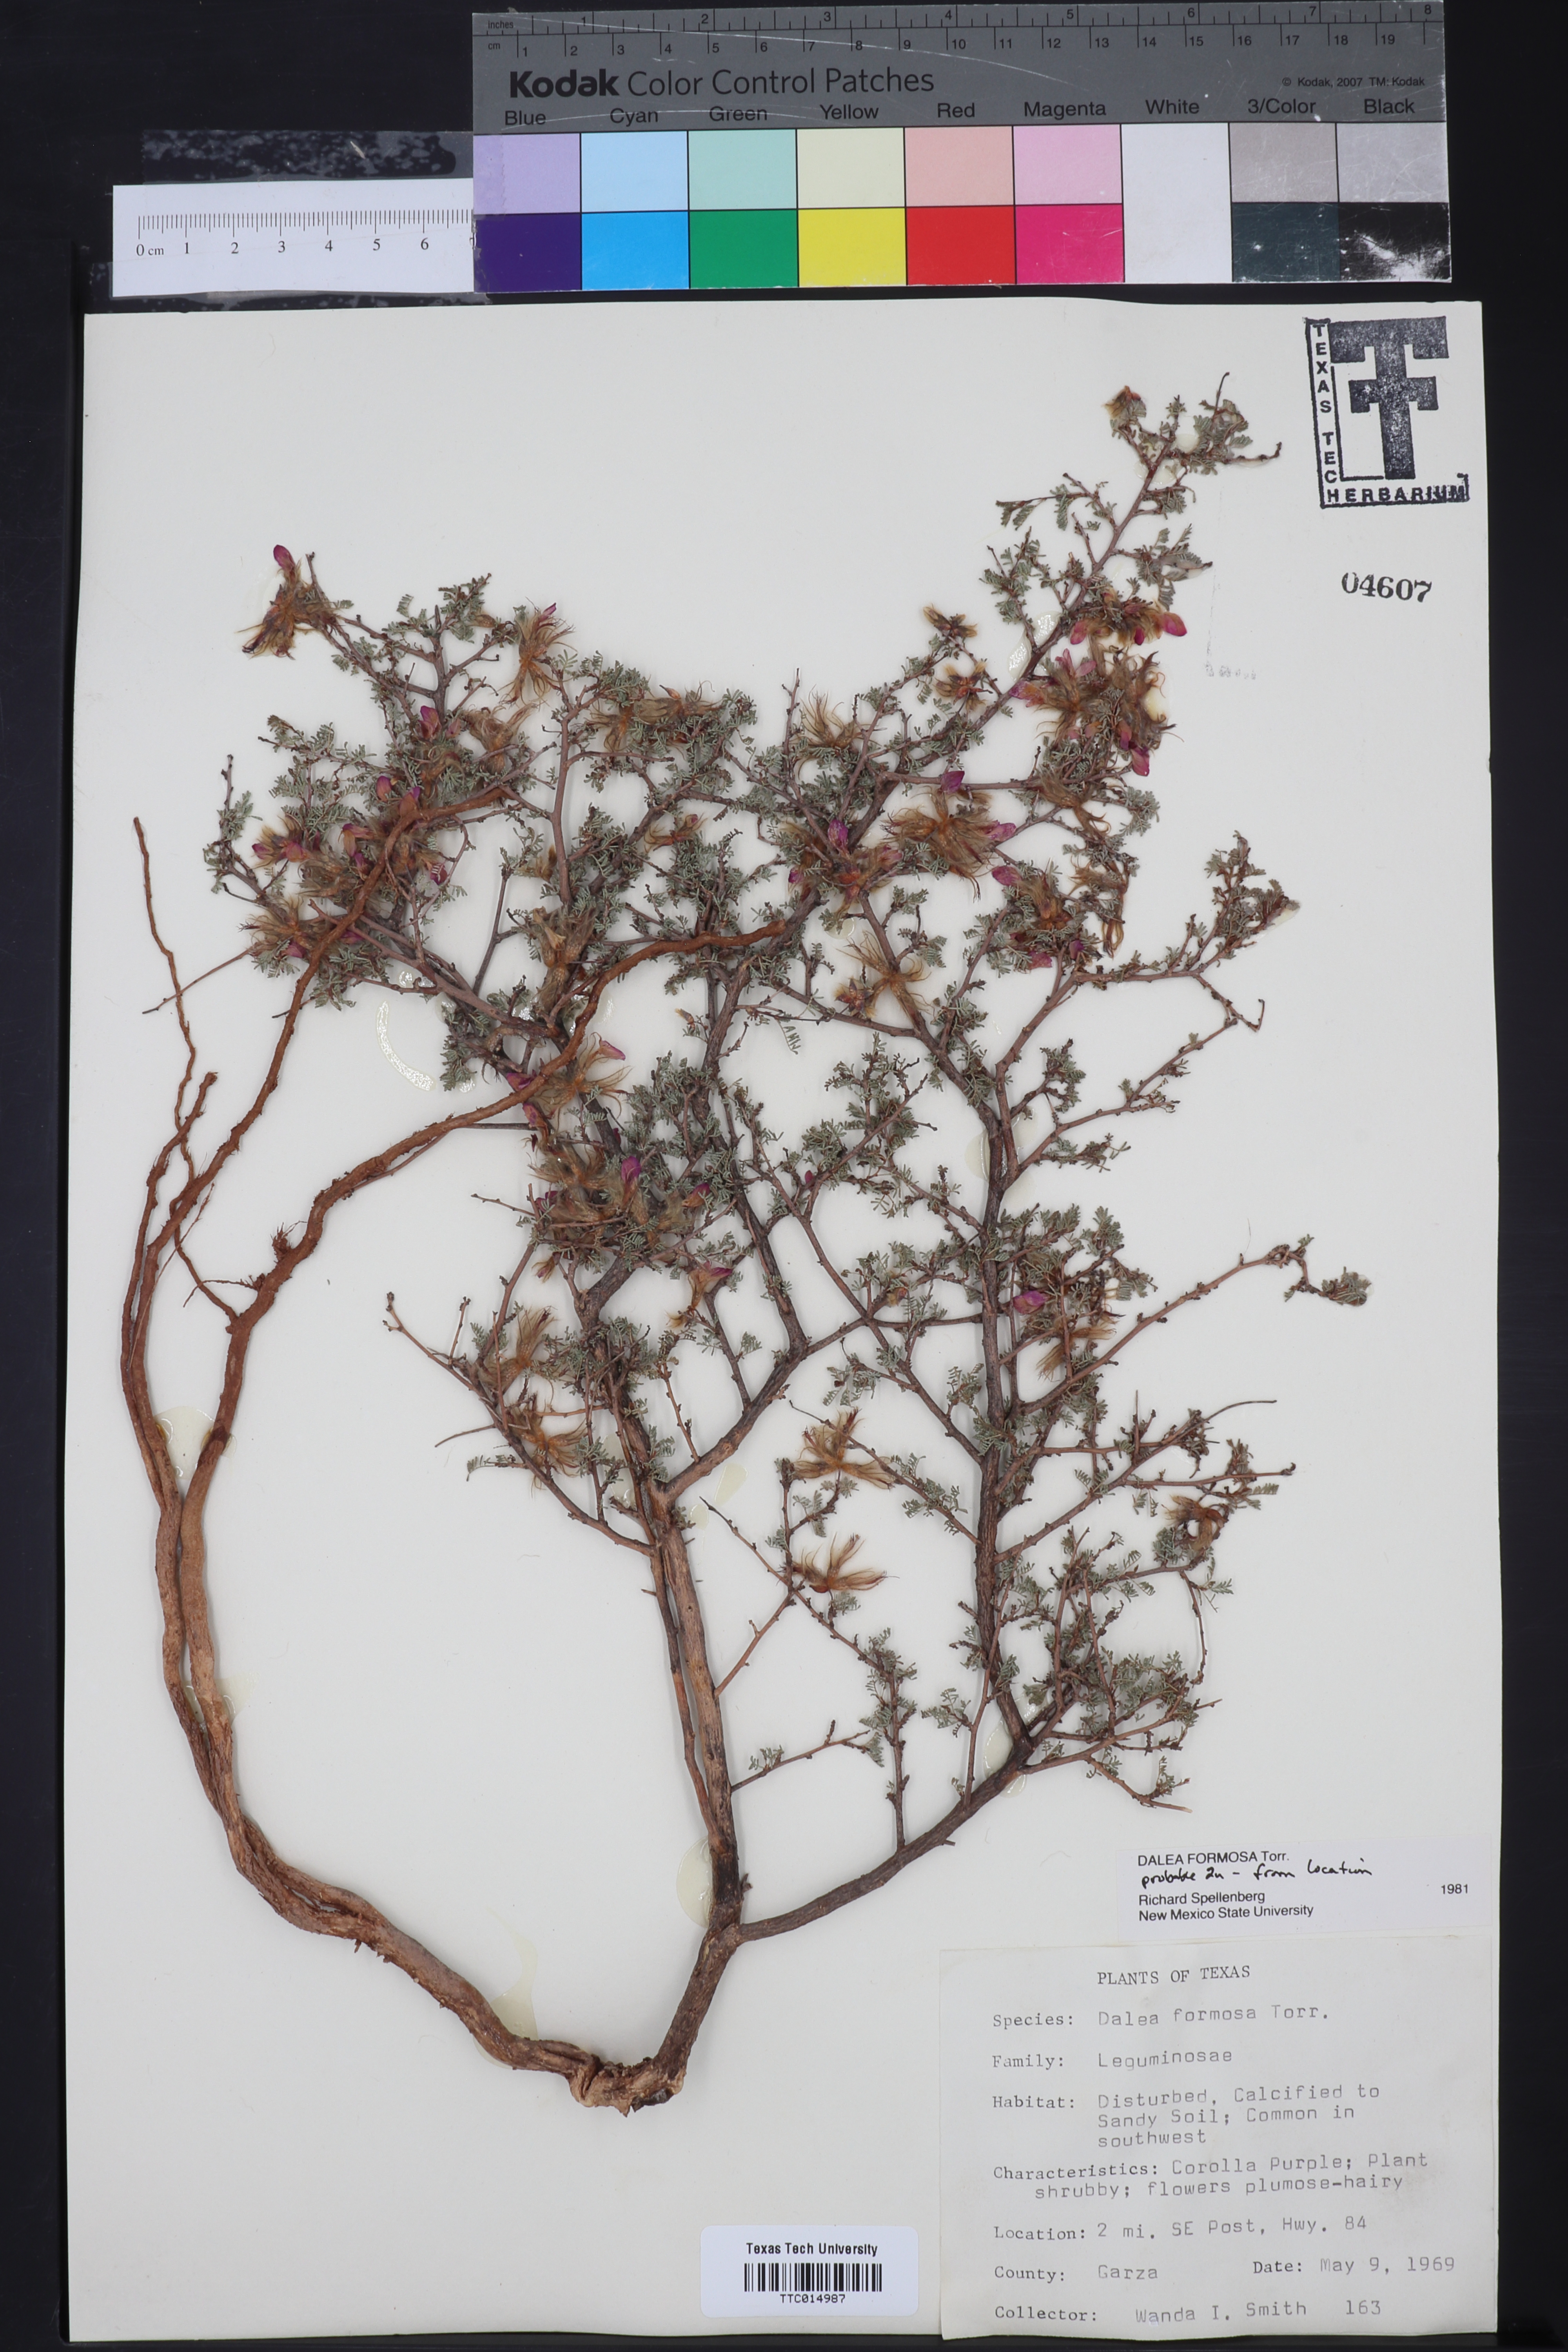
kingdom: Plantae
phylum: Tracheophyta
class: Magnoliopsida
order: Fabales
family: Fabaceae
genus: Dalea
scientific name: Dalea formosa
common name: Feather-plume dalea
